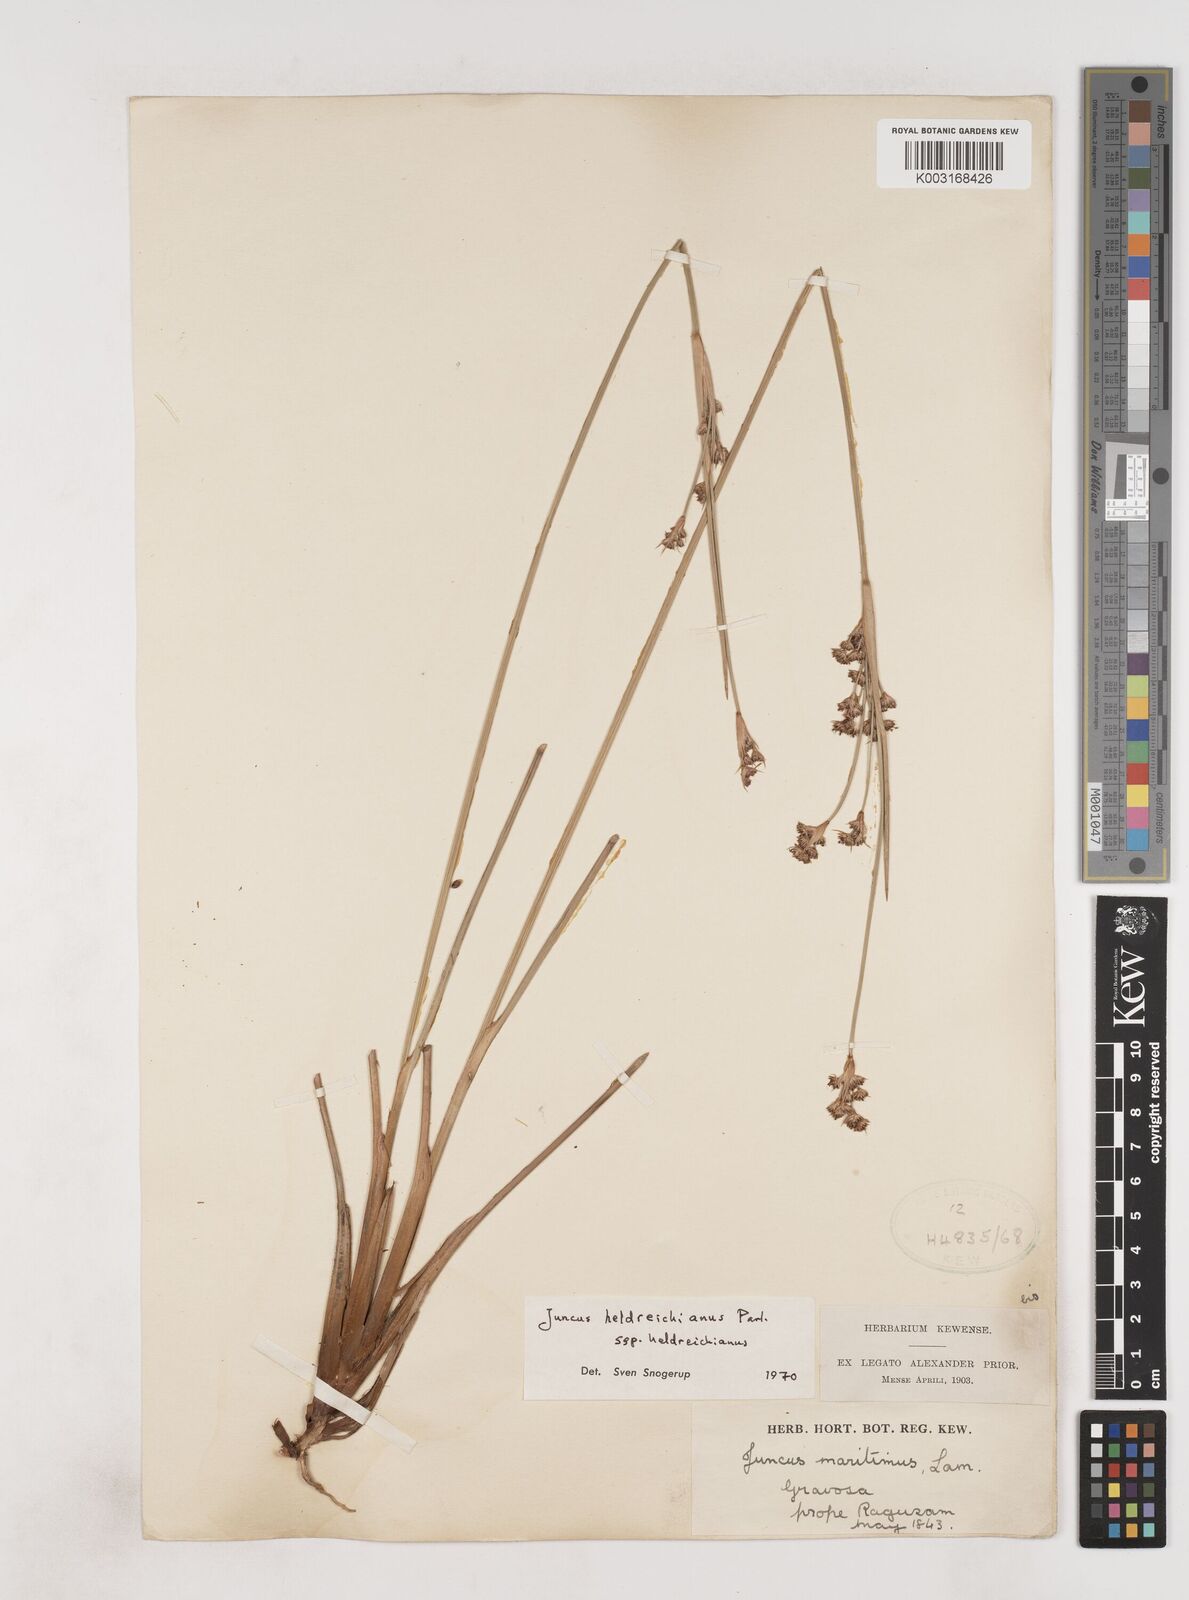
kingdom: Plantae
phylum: Tracheophyta
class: Liliopsida
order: Poales
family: Juncaceae
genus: Juncus
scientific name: Juncus heldreichianus
